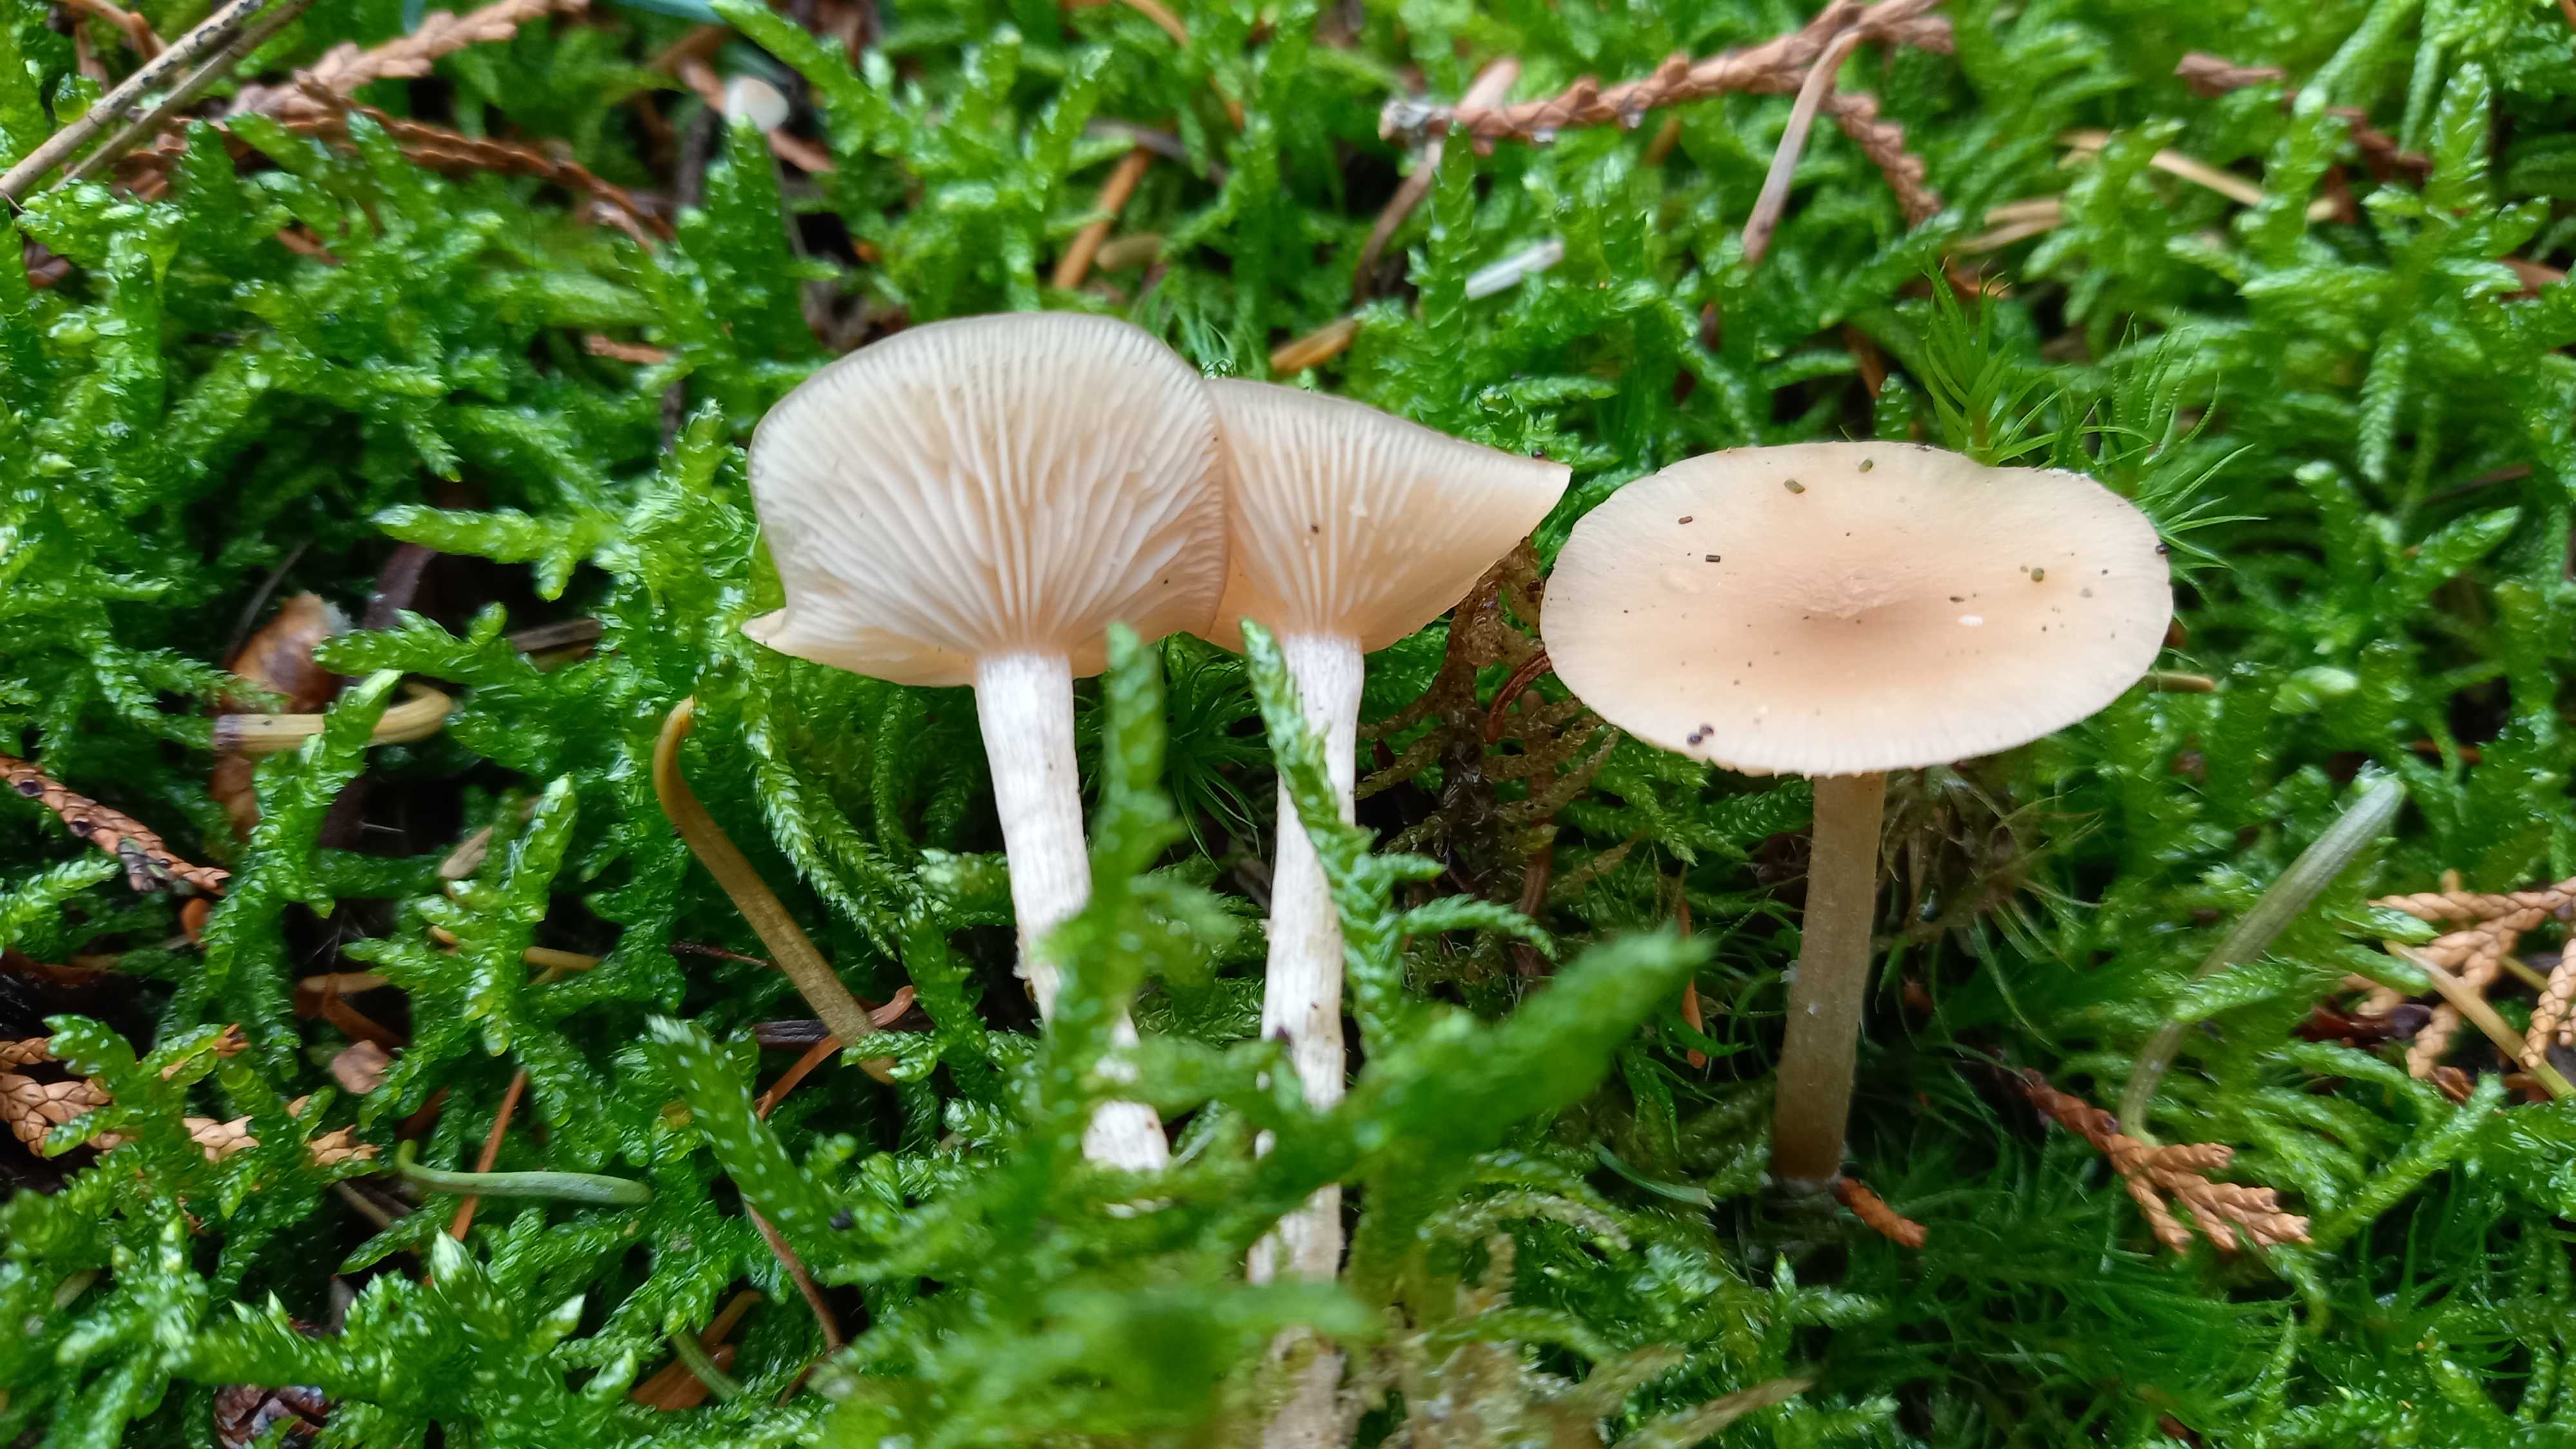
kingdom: Fungi
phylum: Basidiomycota
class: Agaricomycetes
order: Agaricales
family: Tricholomataceae
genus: Clitocybe
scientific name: Clitocybe fragrans
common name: vellugtende tragthat
